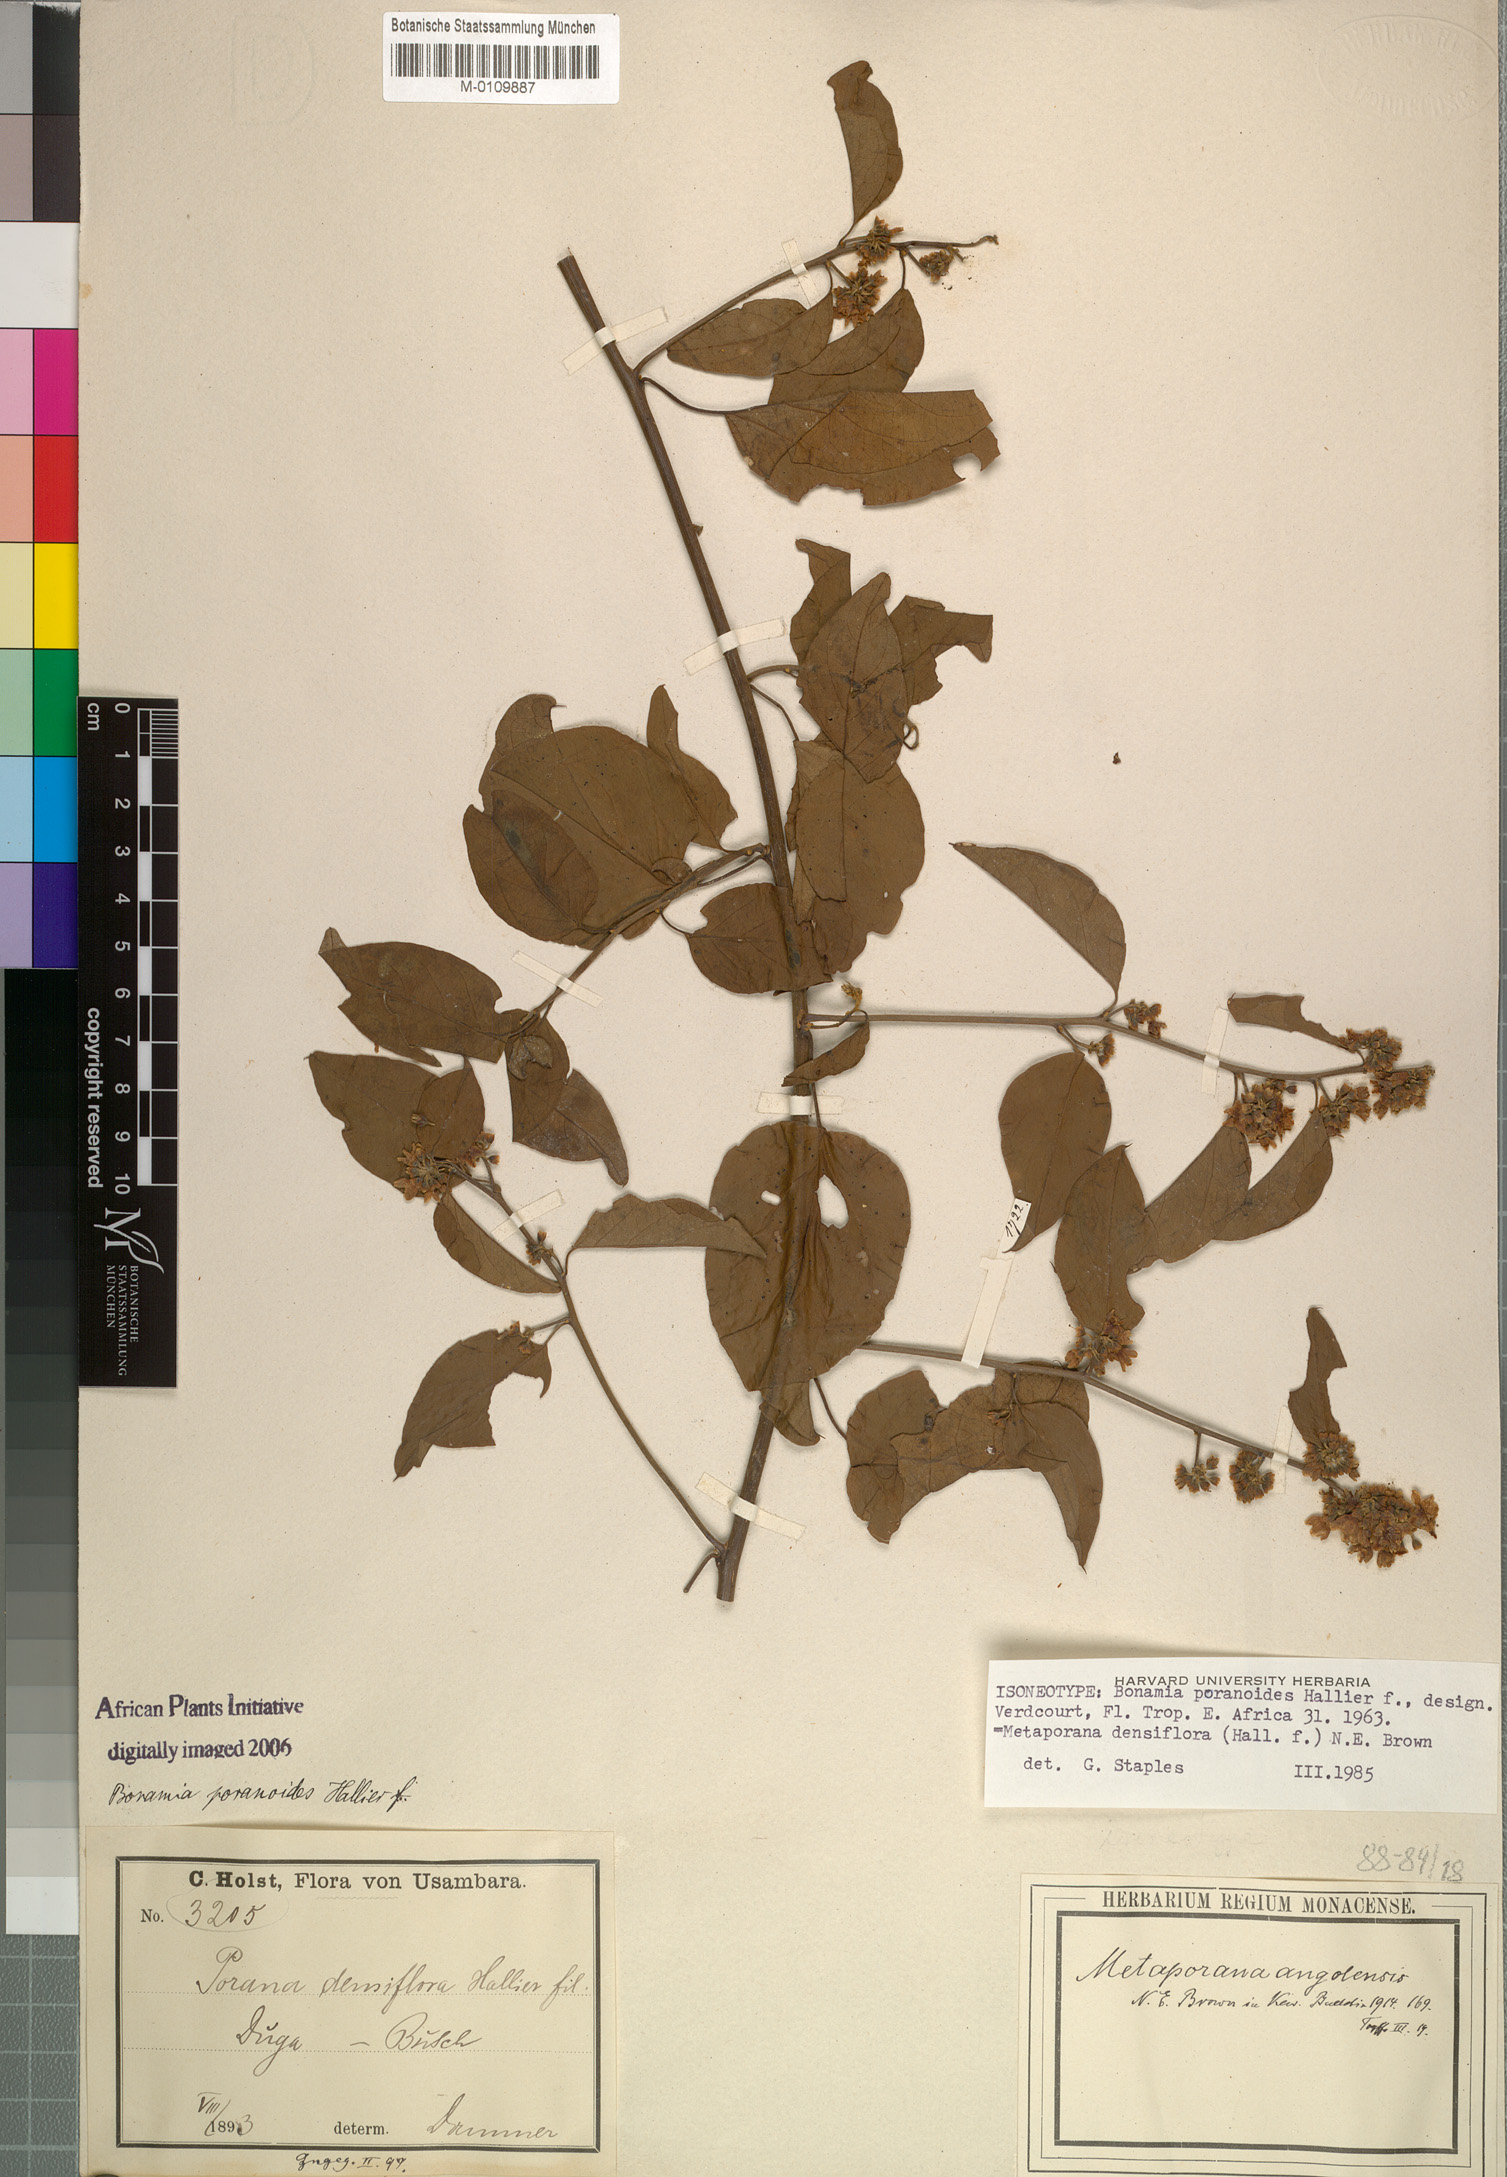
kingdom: Plantae
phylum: Tracheophyta
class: Magnoliopsida
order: Solanales
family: Convolvulaceae
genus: Metaporana
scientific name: Metaporana densiflora
